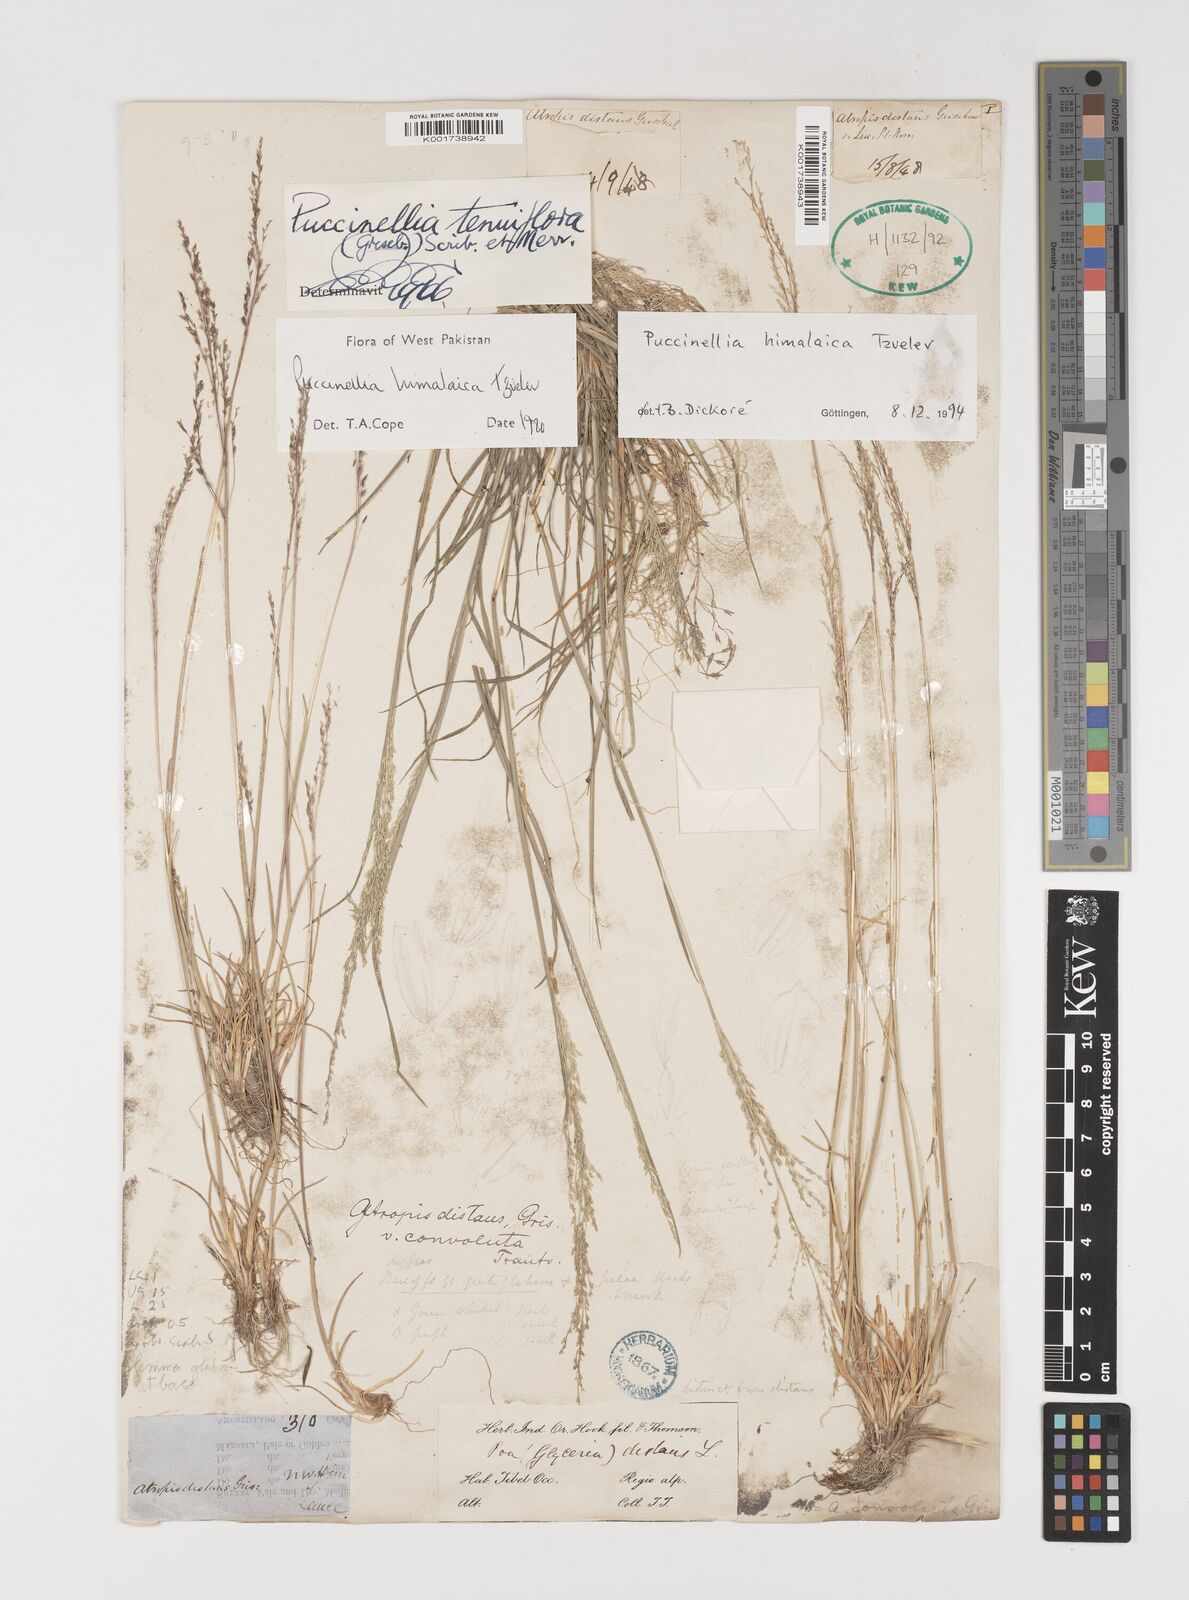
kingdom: Plantae
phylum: Tracheophyta
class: Liliopsida
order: Poales
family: Poaceae
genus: Puccinellia
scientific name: Puccinellia himalaica
